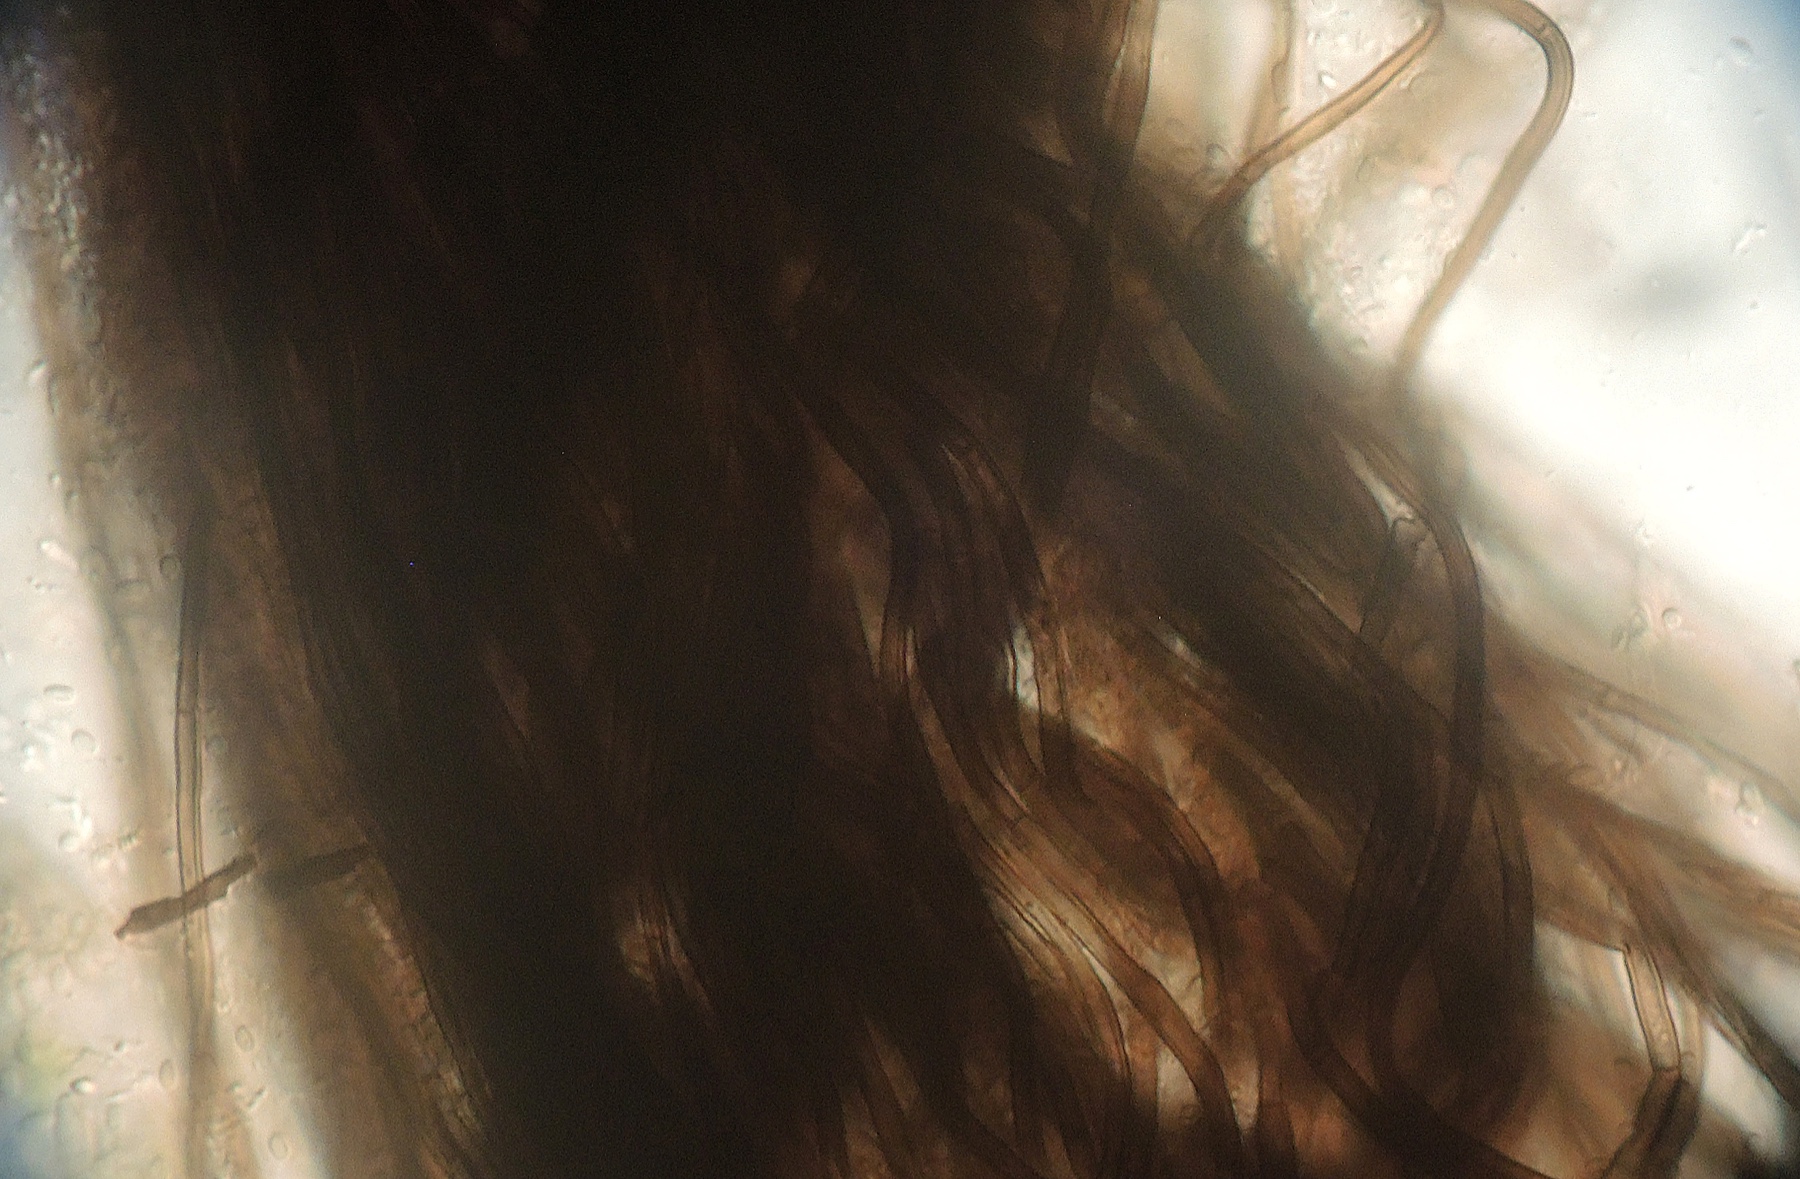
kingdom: Fungi
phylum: Ascomycota
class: Eurotiomycetes
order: Chaetothyriales
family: Herpotrichiellaceae
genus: Exophiala
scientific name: Exophiala calicioides
